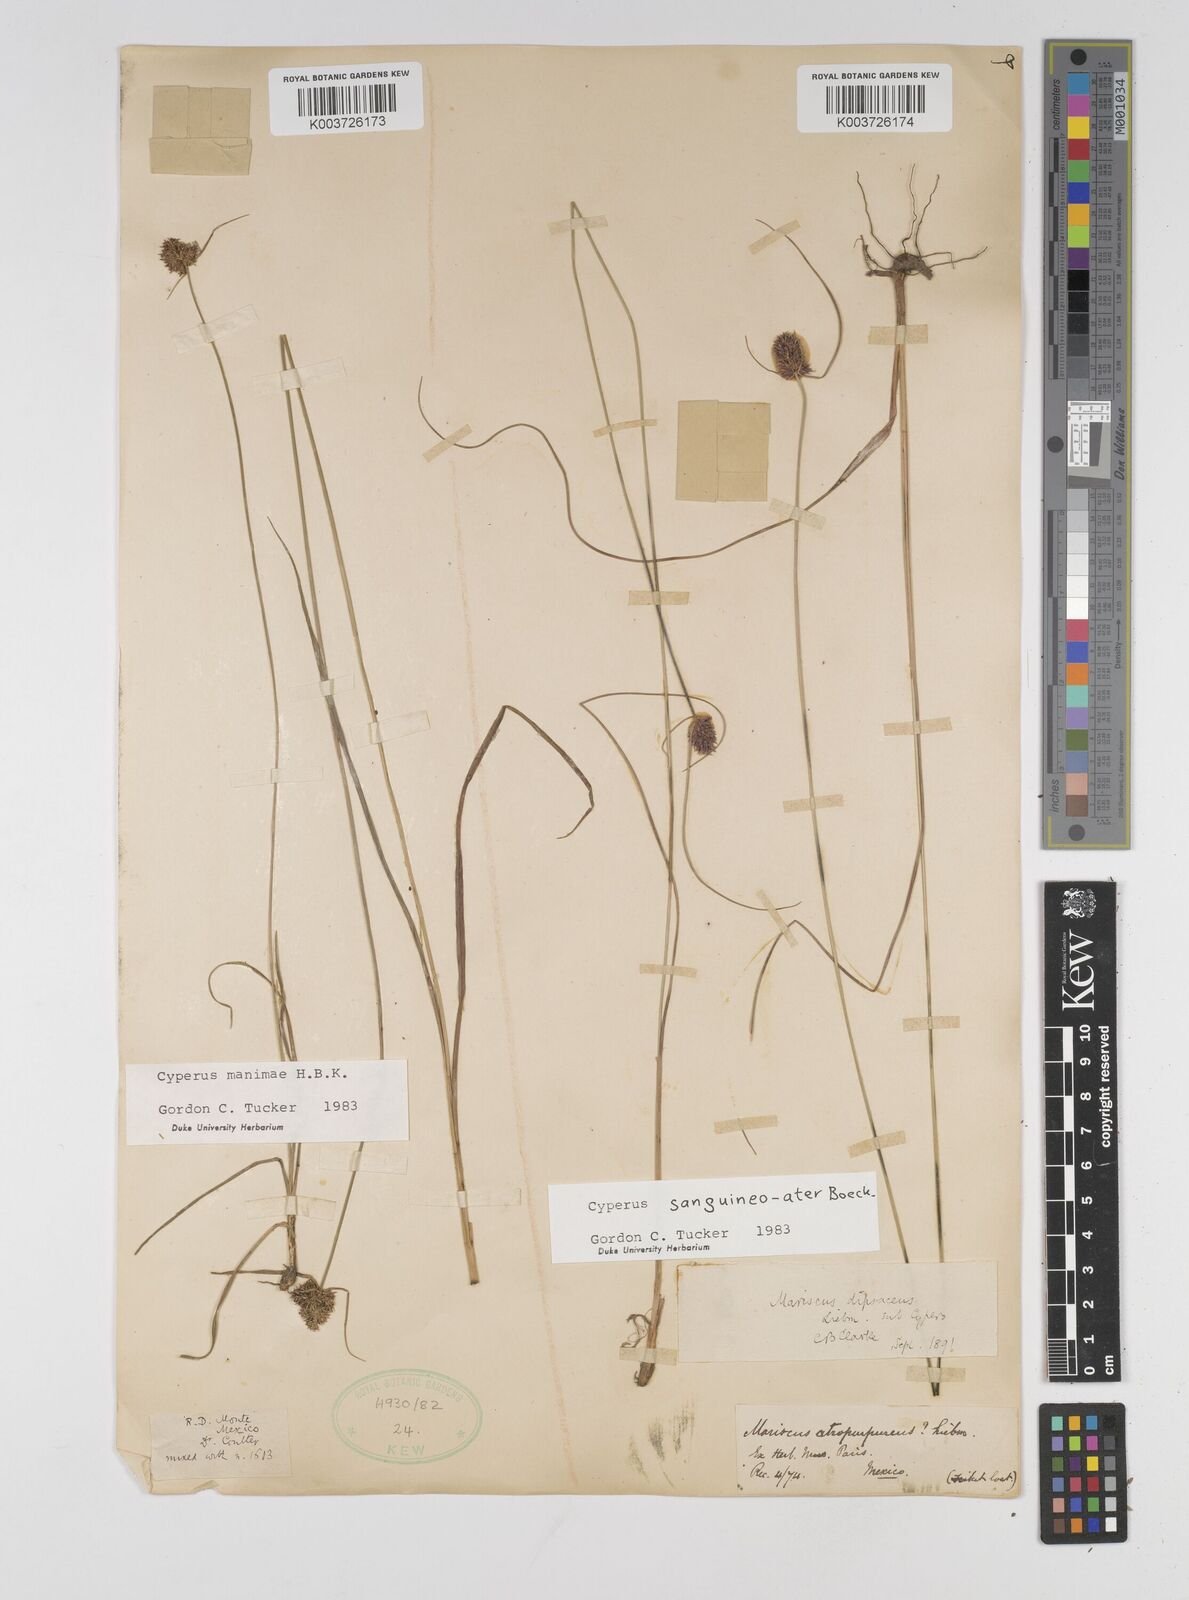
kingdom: Plantae
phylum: Tracheophyta
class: Liliopsida
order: Poales
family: Cyperaceae
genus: Cyperus
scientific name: Cyperus sanguineoater
